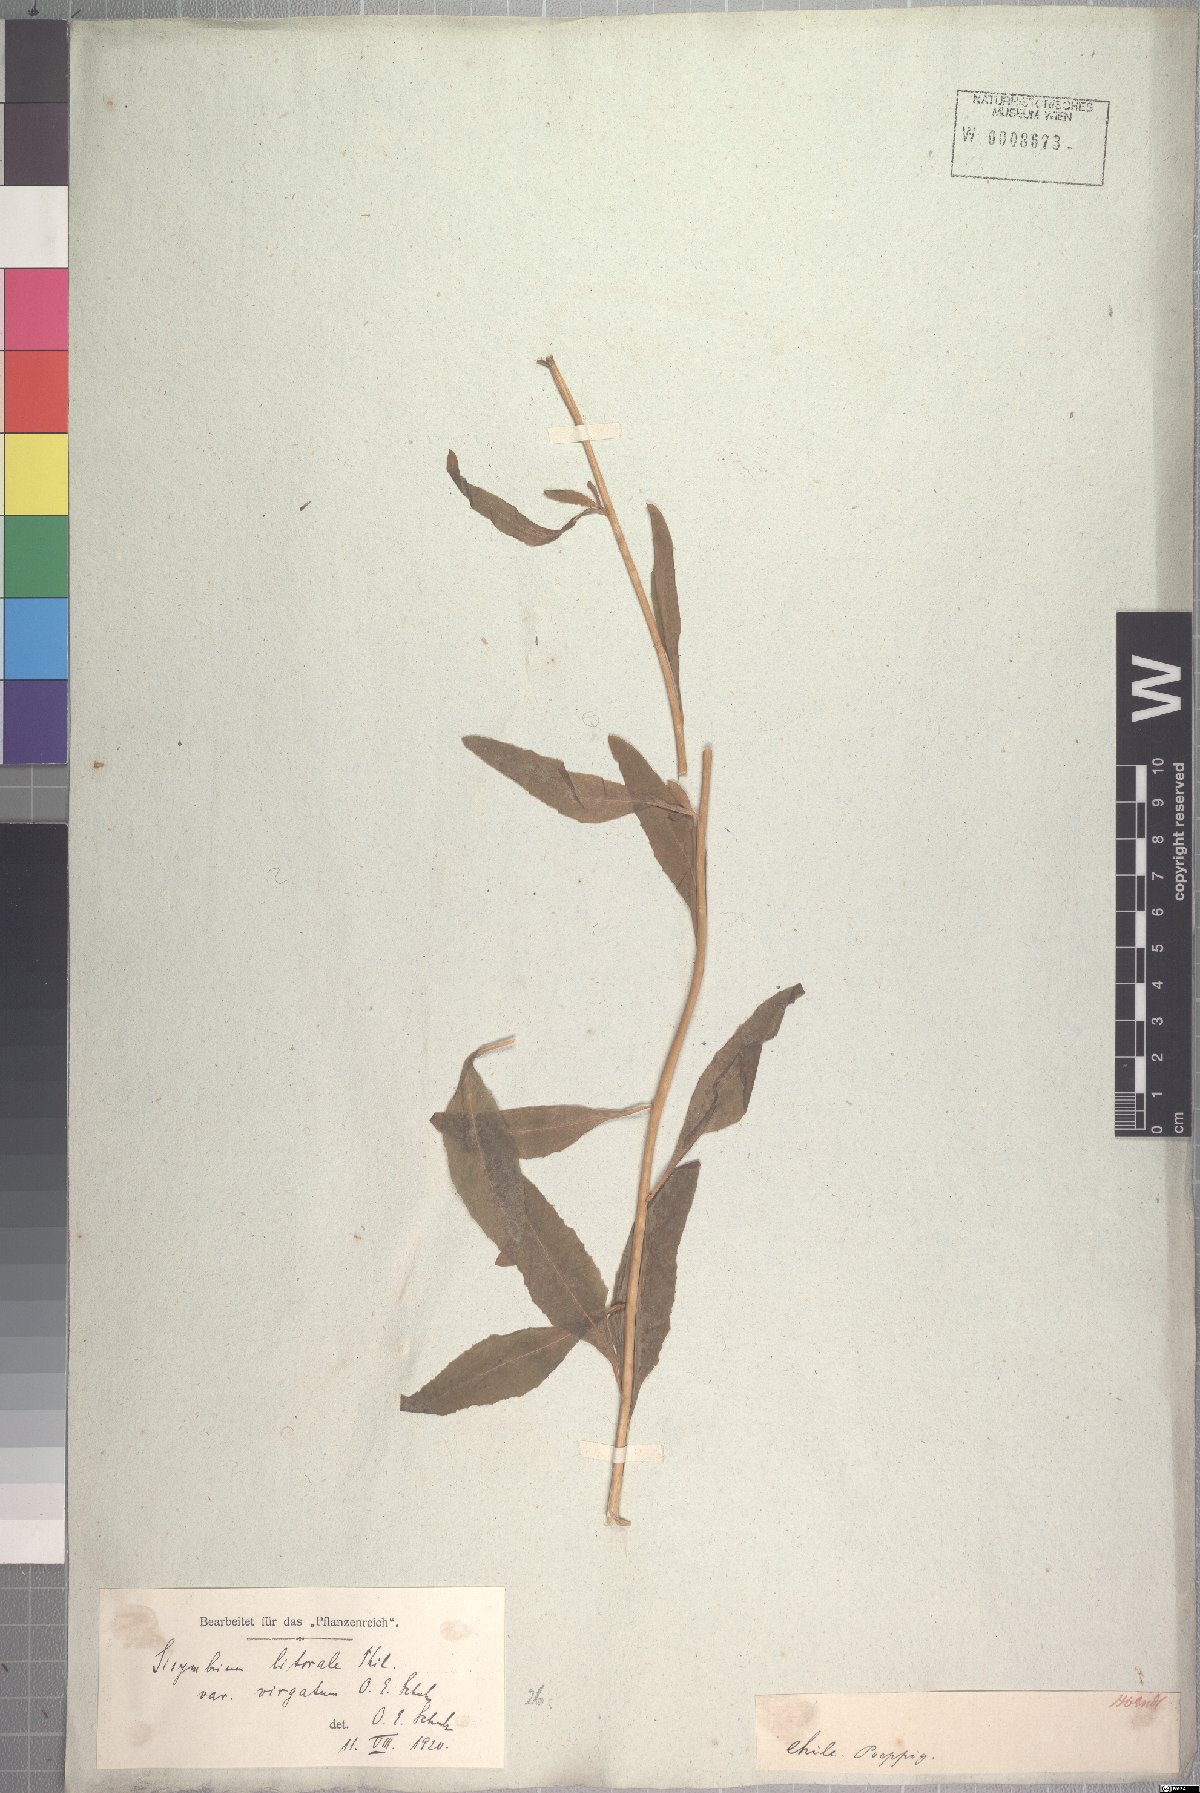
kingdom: Plantae
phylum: Tracheophyta
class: Magnoliopsida
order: Brassicales
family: Brassicaceae
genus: Polypsecadium
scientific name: Polypsecadium litorale
